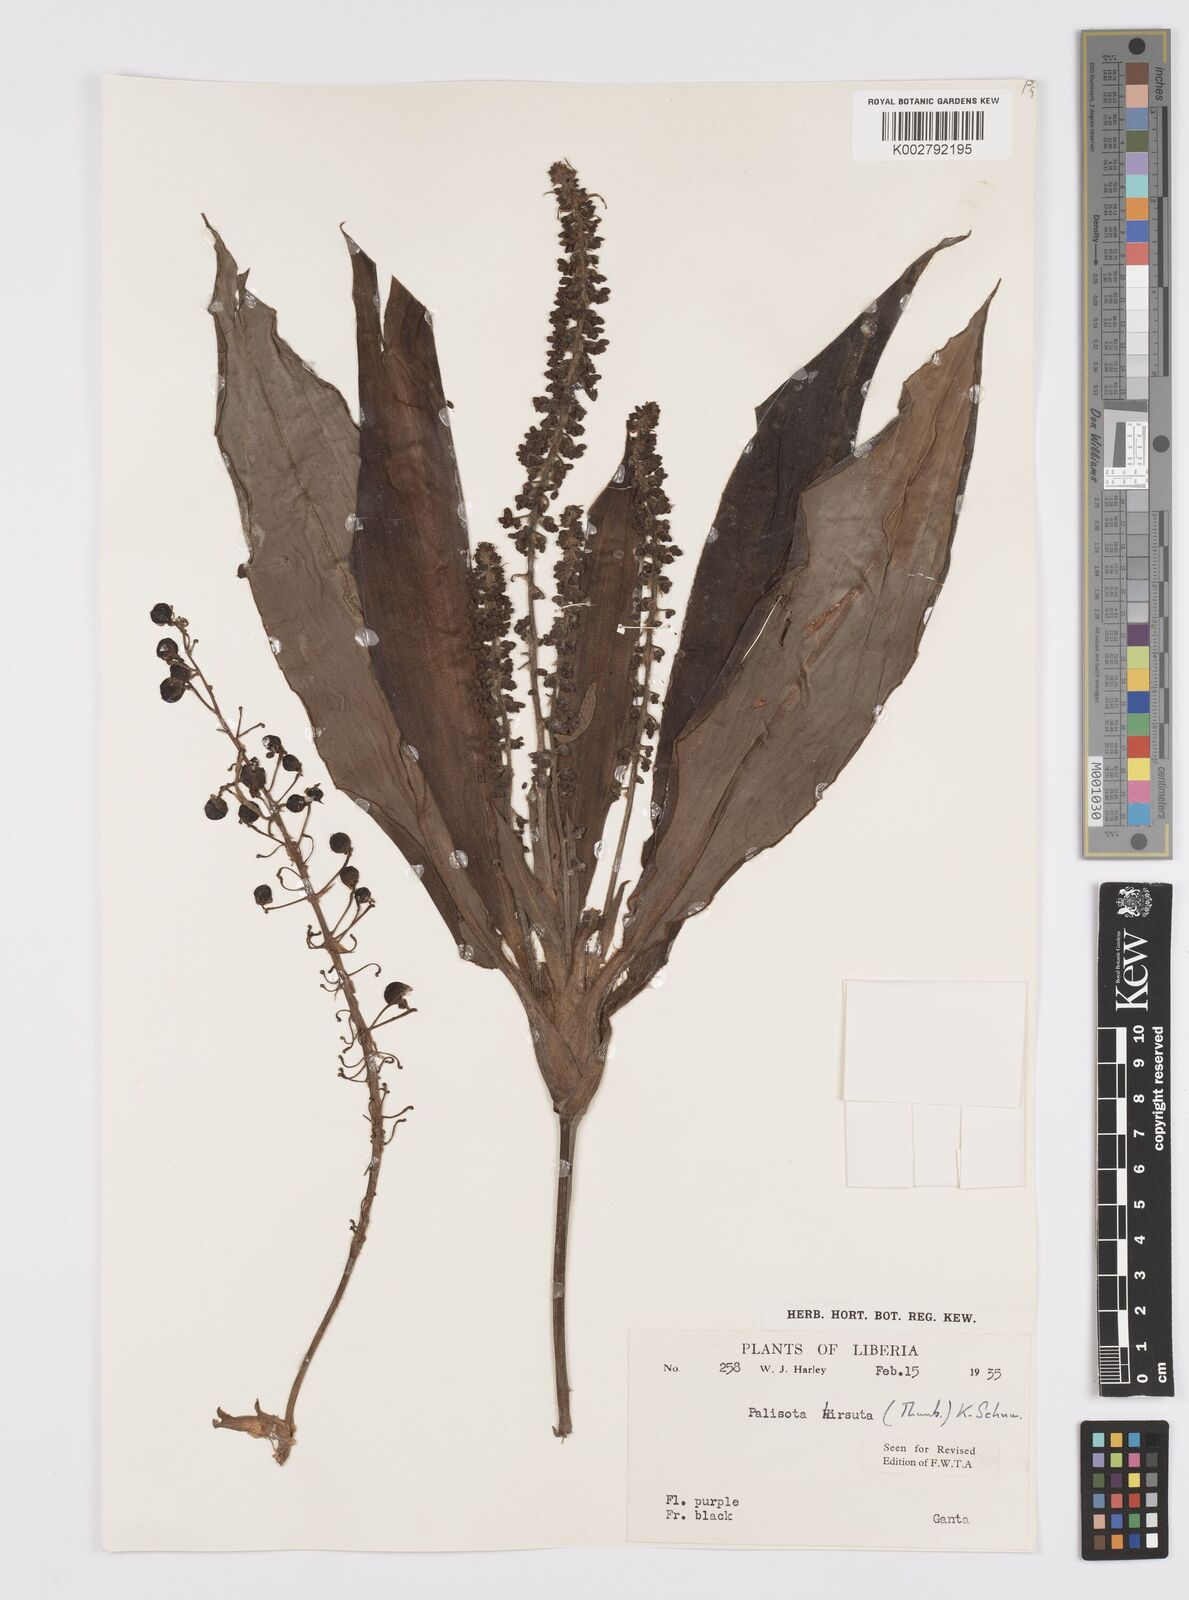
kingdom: Plantae
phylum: Tracheophyta
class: Liliopsida
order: Commelinales
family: Commelinaceae
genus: Palisota
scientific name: Palisota hirsuta
